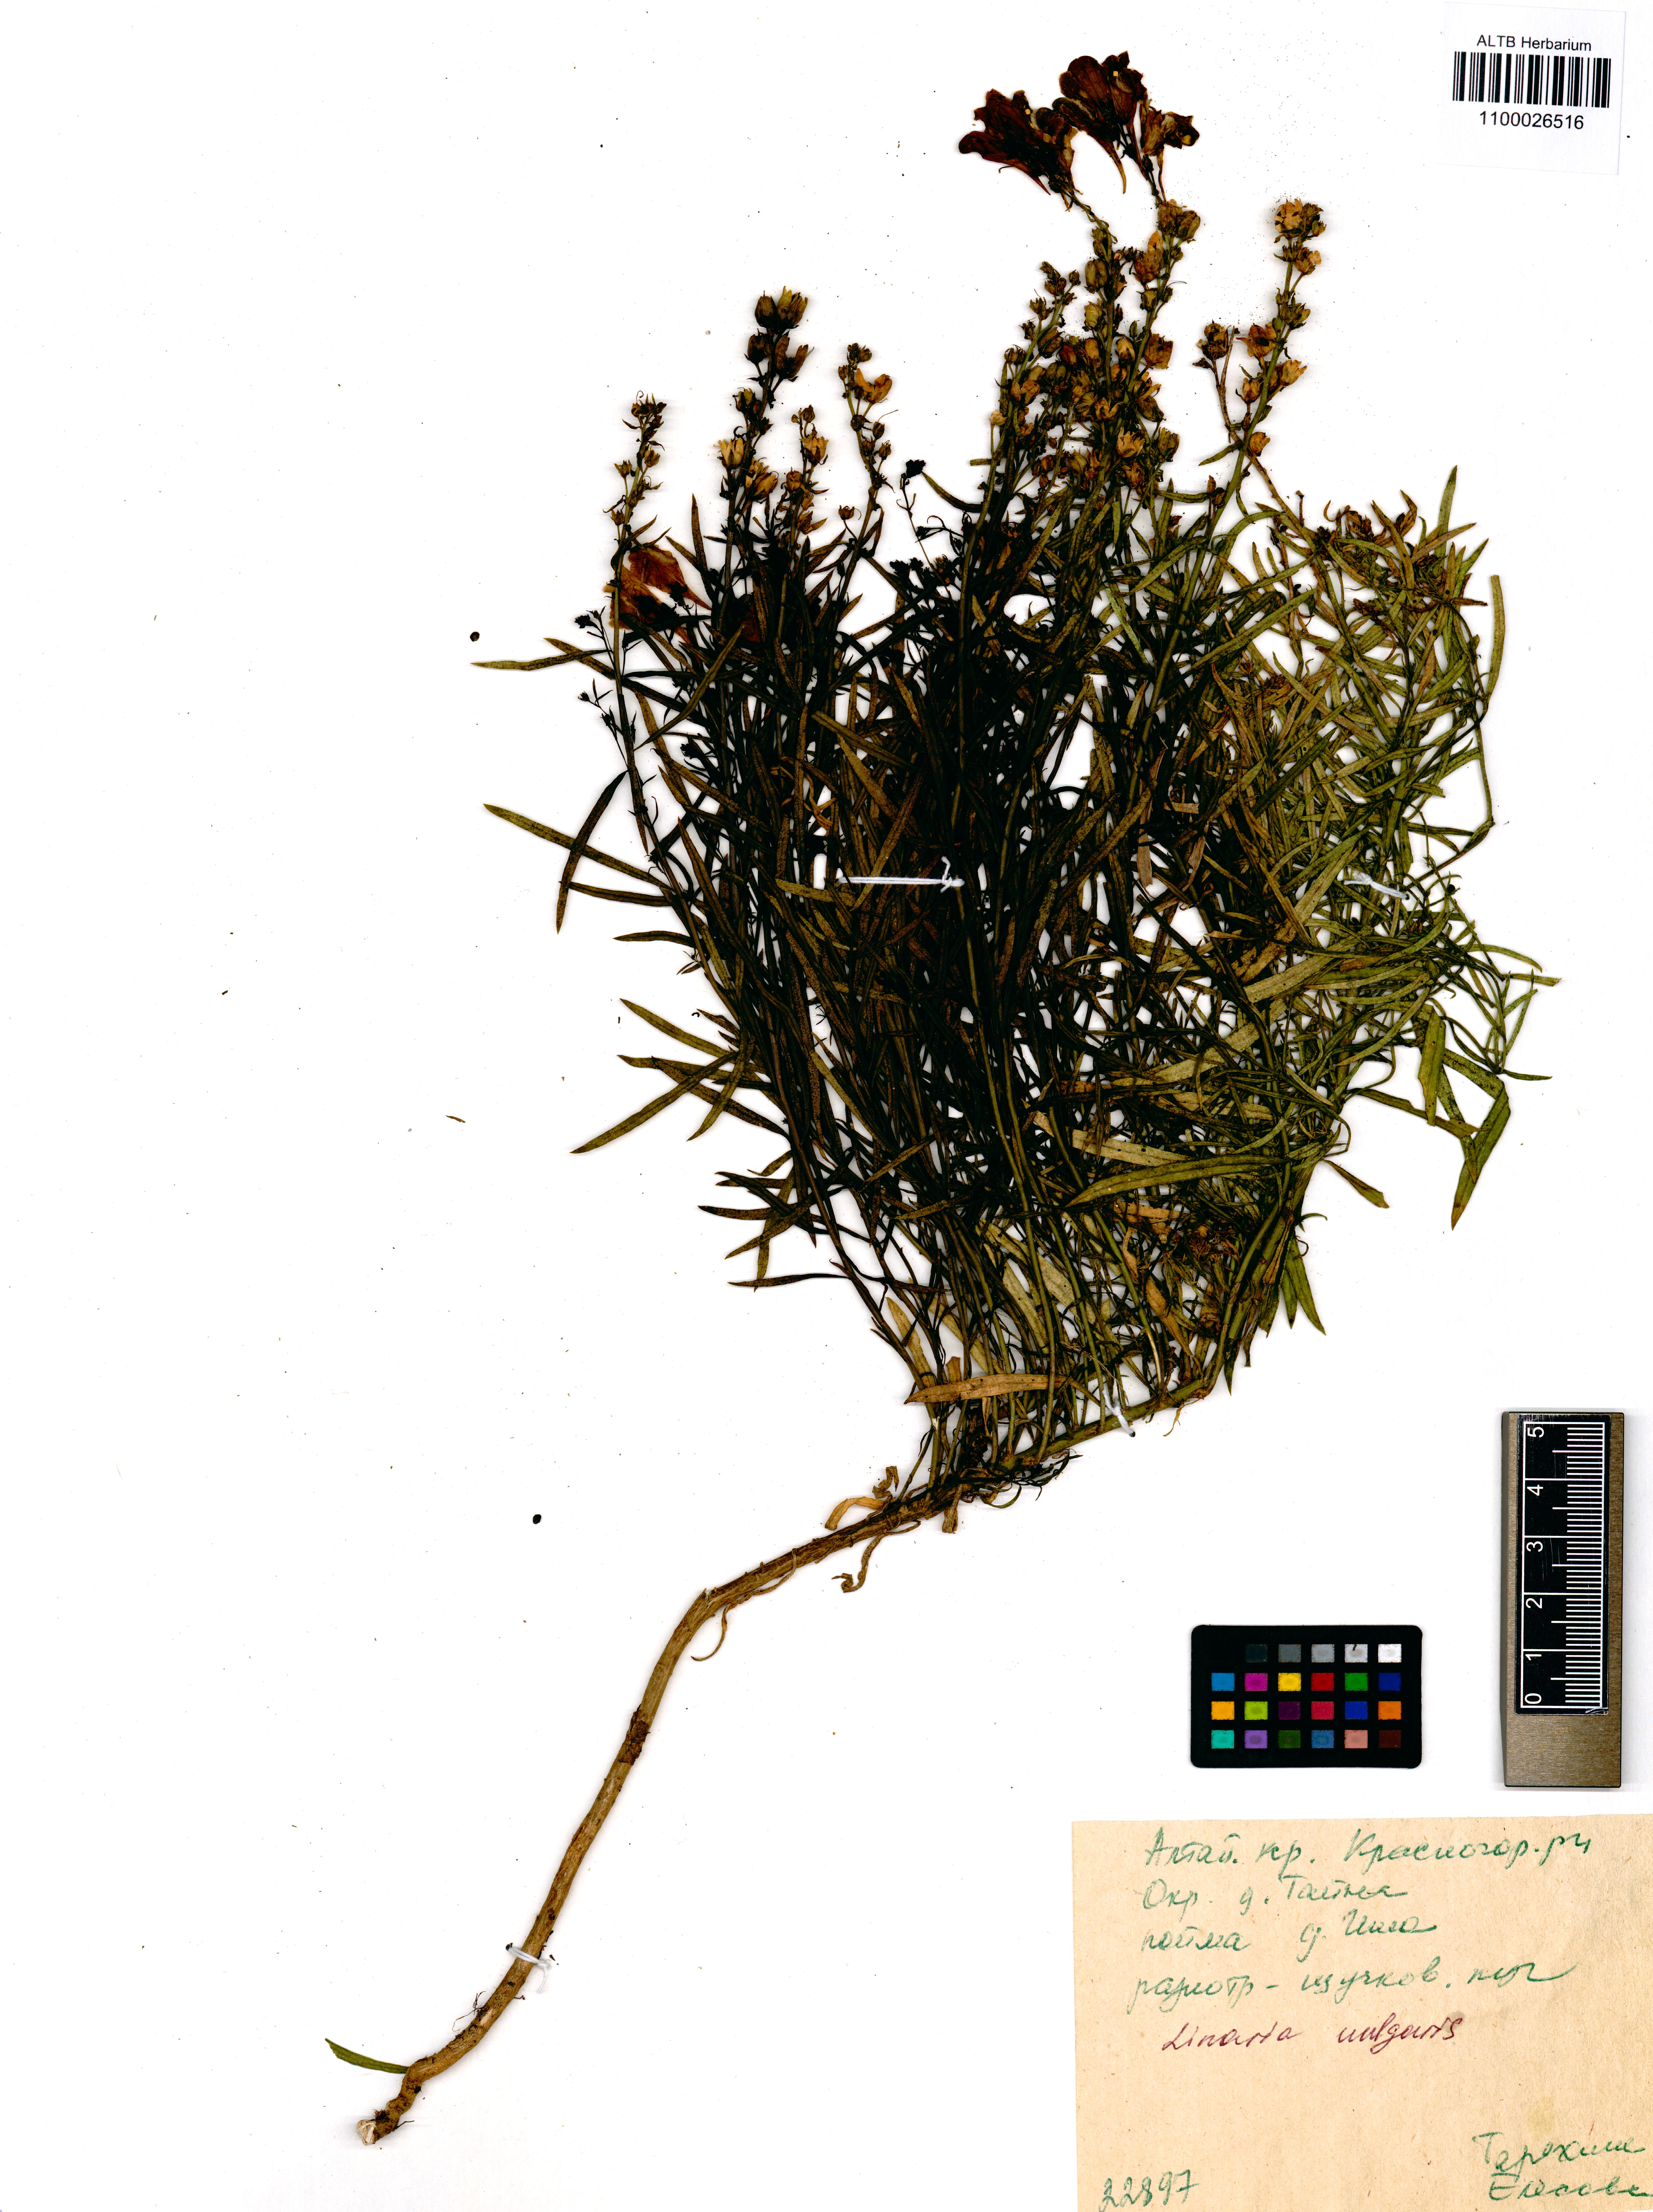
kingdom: Plantae
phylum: Tracheophyta
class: Magnoliopsida
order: Lamiales
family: Plantaginaceae
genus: Linaria
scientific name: Linaria vulgaris
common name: Butter and eggs
